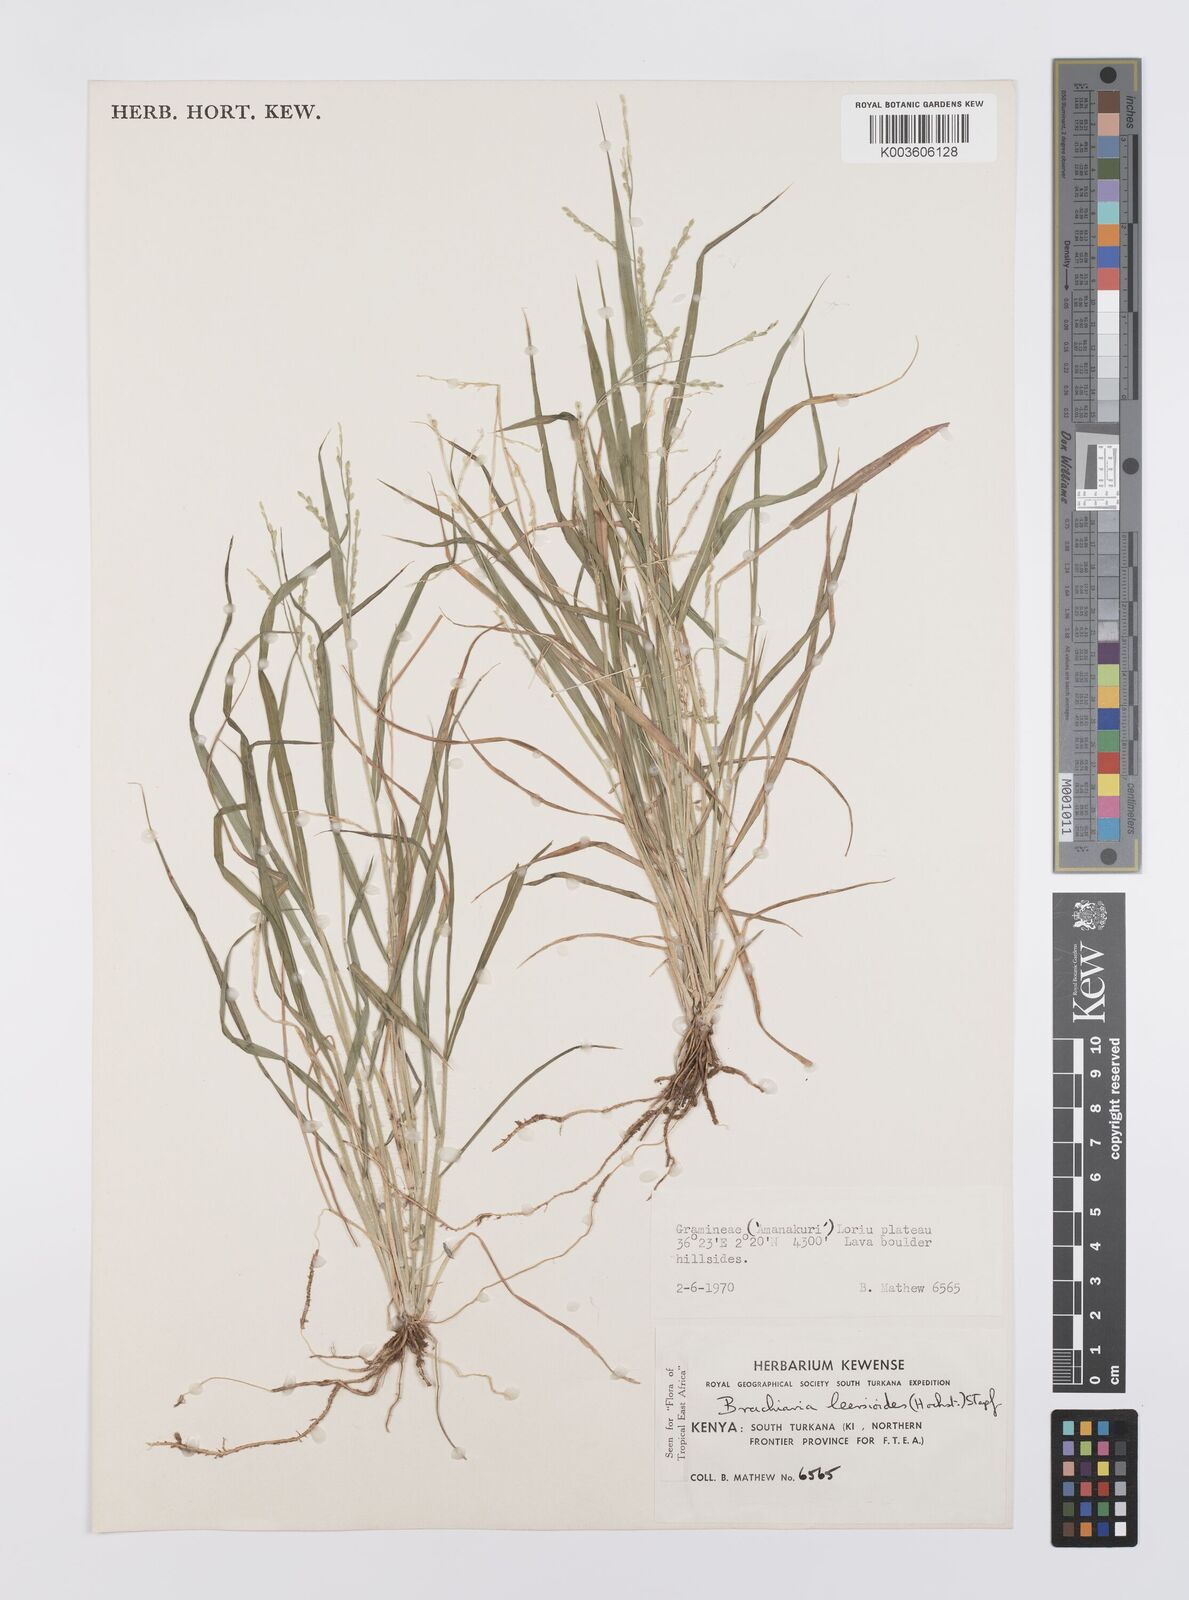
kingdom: Plantae
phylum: Tracheophyta
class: Liliopsida
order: Poales
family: Poaceae
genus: Urochloa
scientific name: Urochloa leersioides
